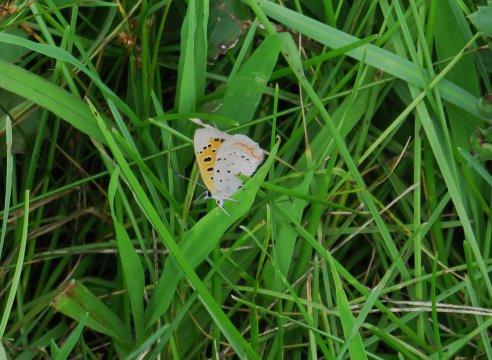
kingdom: Animalia
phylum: Arthropoda
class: Insecta
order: Lepidoptera
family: Lycaenidae
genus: Lycaena
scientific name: Lycaena phlaeas
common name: American Copper
